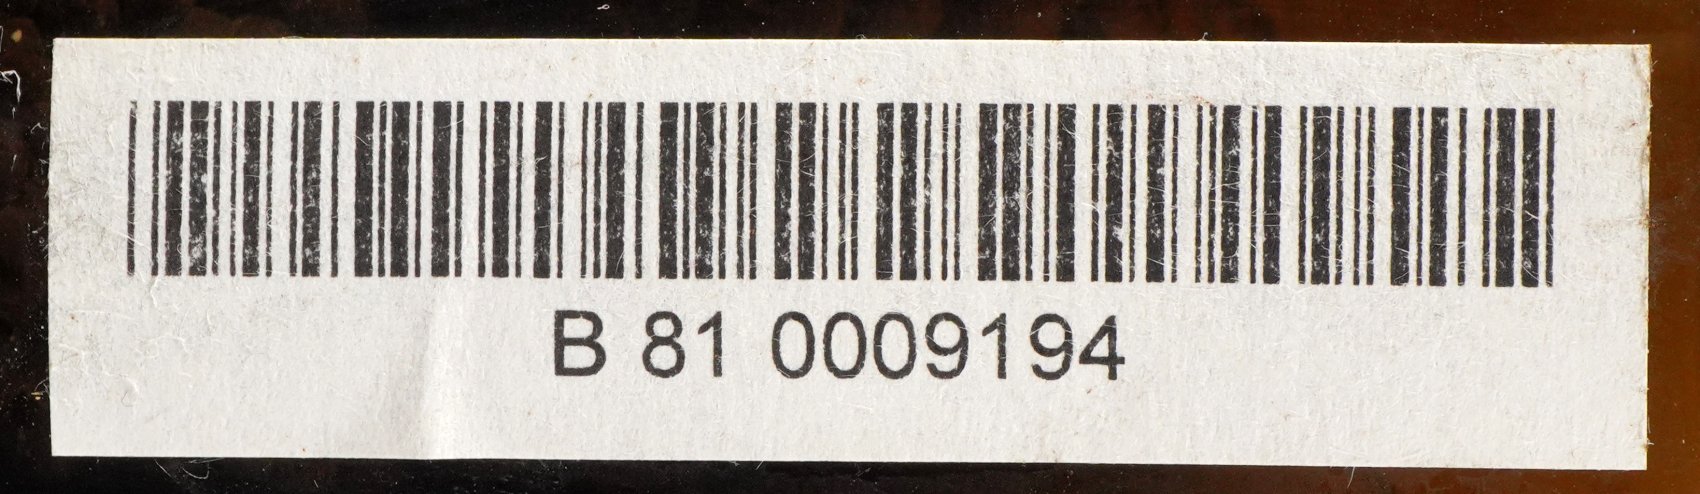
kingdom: Plantae
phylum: Tracheophyta
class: Magnoliopsida
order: Rosales
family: Moraceae
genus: Artocarpus
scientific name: Artocarpus altilis
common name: Breadfruit
